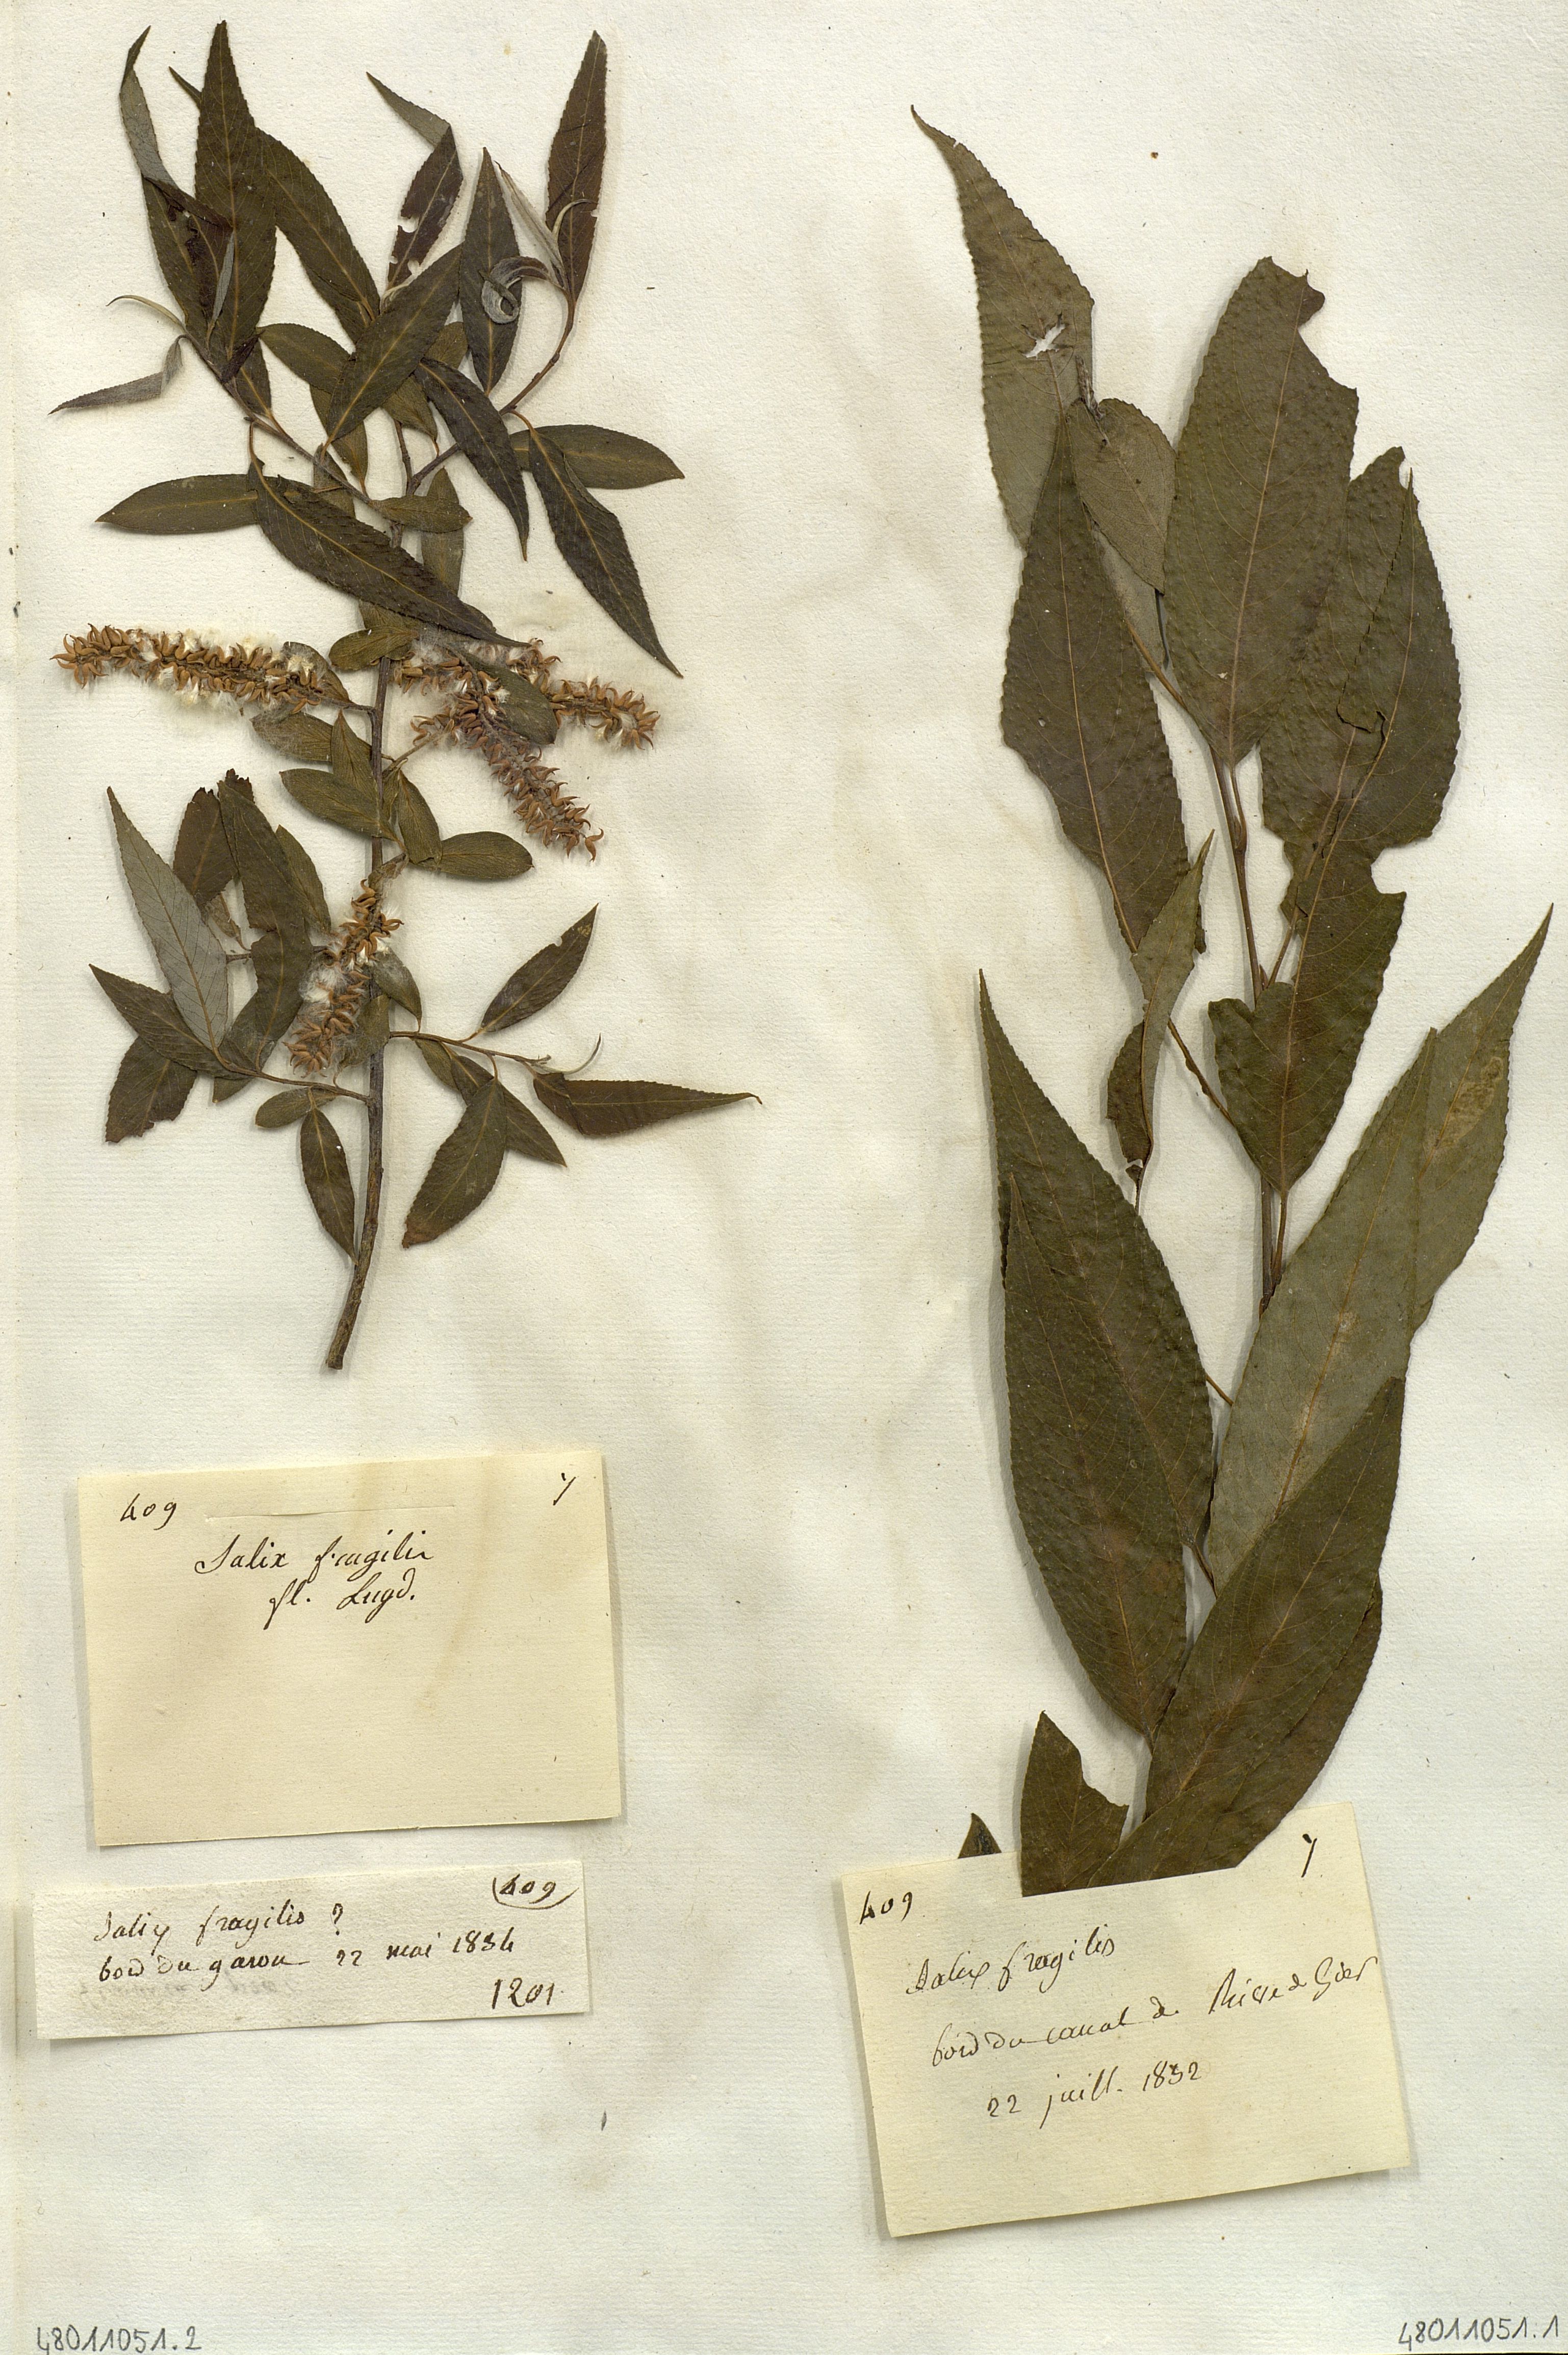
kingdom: Plantae
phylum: Tracheophyta
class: Magnoliopsida
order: Malpighiales
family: Salicaceae
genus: Salix
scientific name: Salix fragilis
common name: Crack willow
